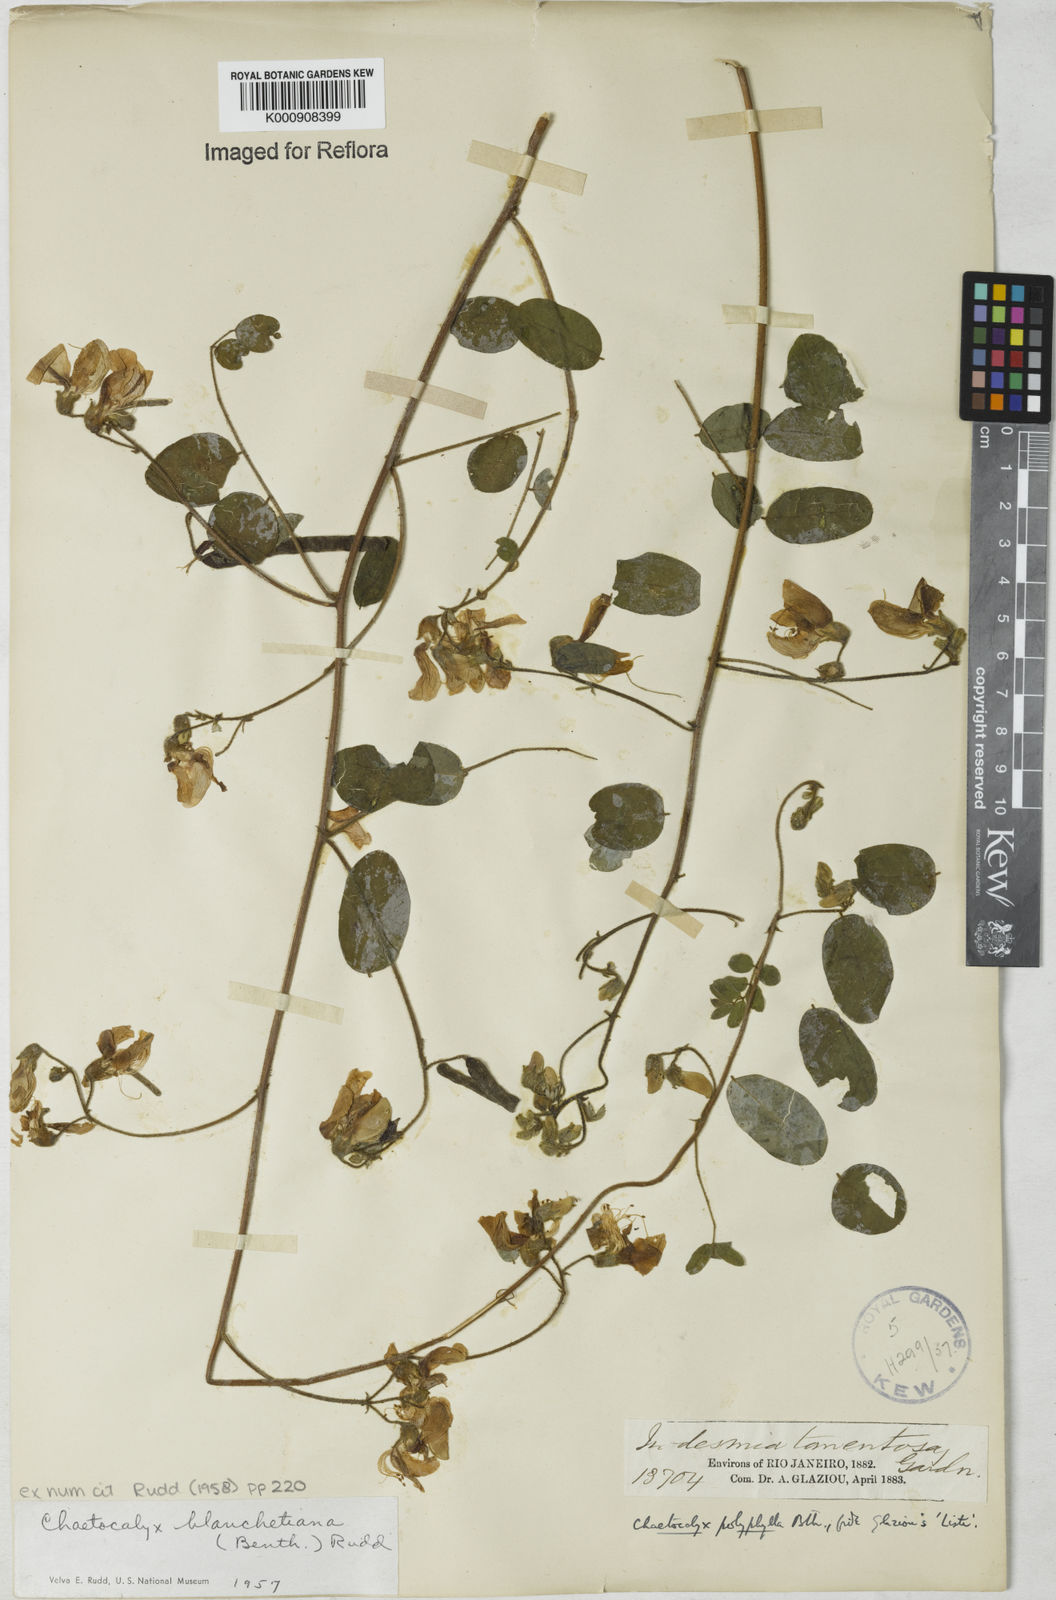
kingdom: Plantae
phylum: Tracheophyta
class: Magnoliopsida
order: Fabales
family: Fabaceae
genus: Nissolia
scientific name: Nissolia blanchetiana
